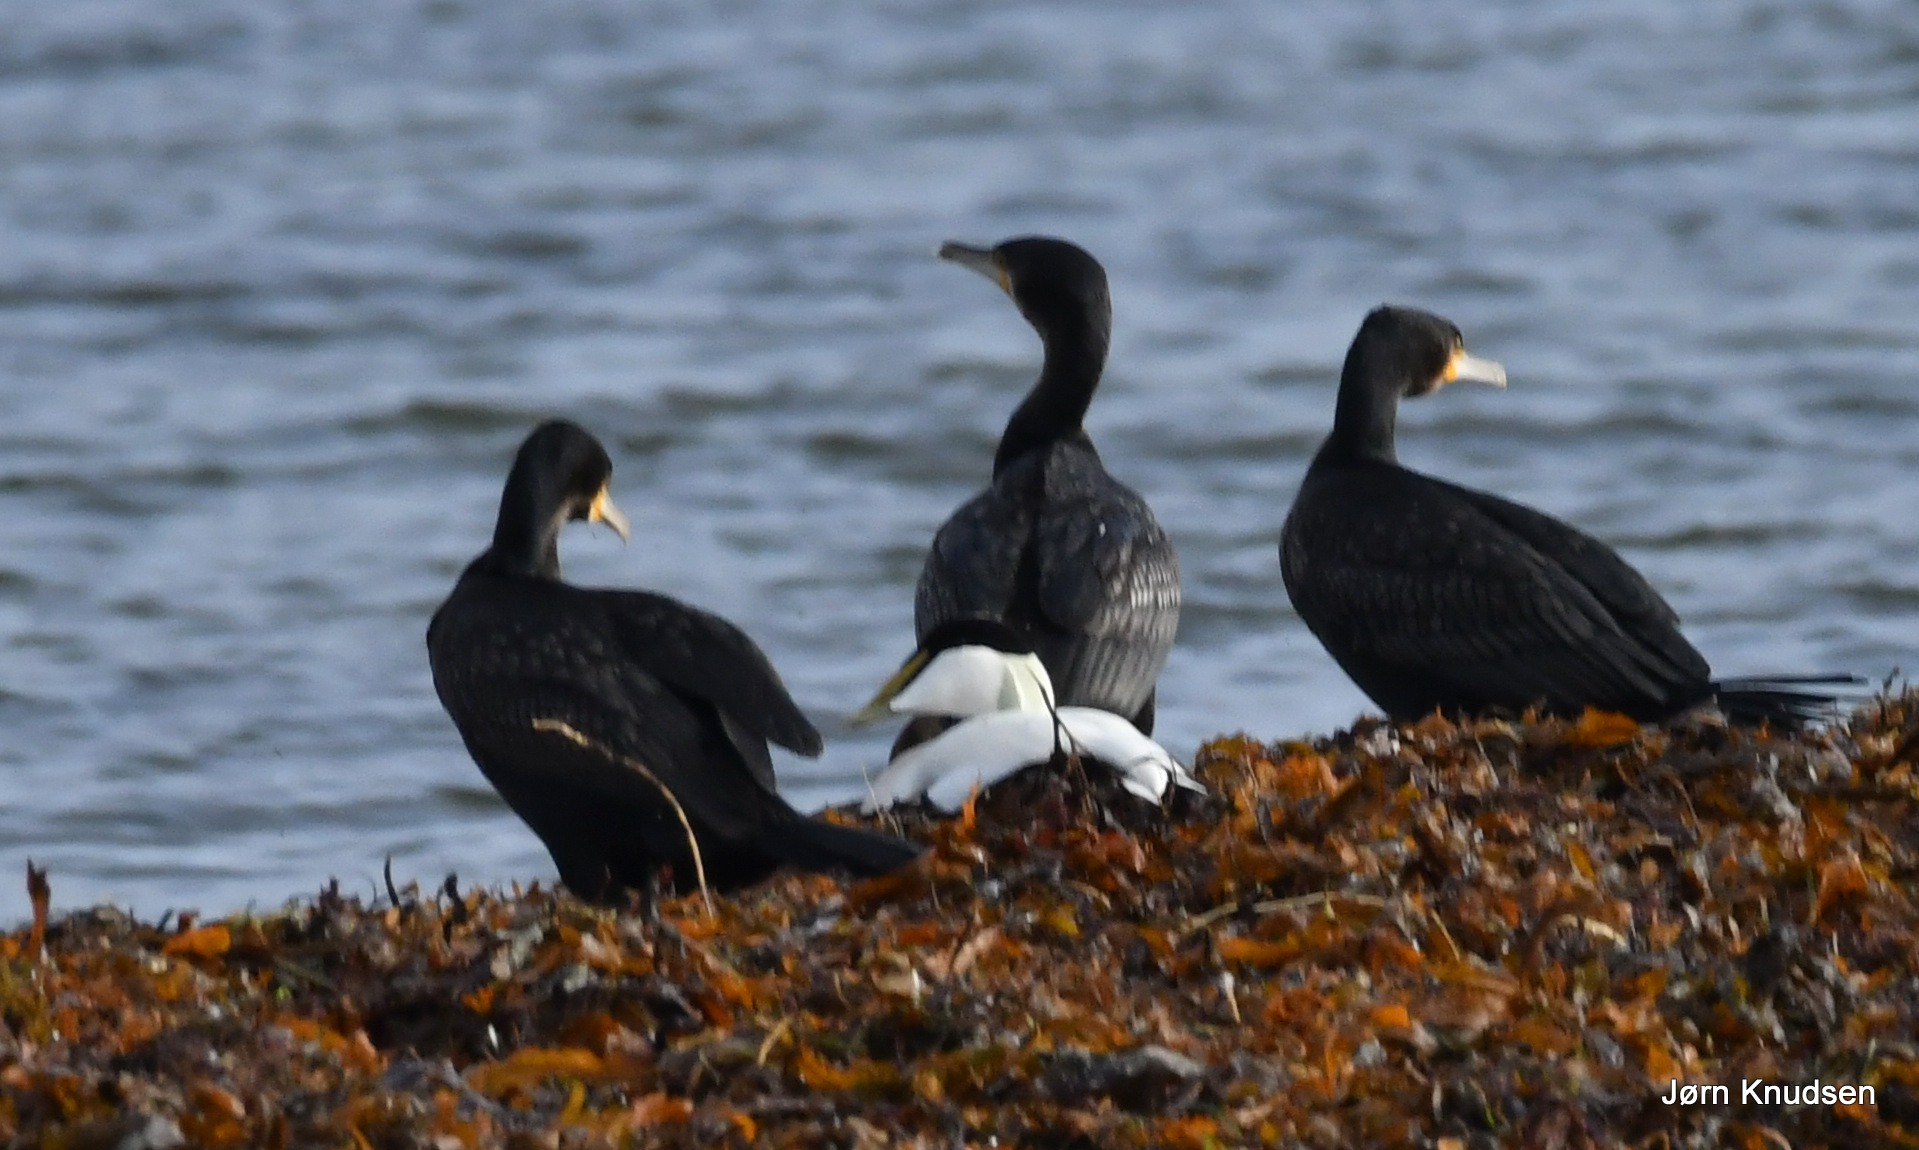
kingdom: Animalia
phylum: Chordata
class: Aves
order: Anseriformes
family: Anatidae
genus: Somateria
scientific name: Somateria mollissima
